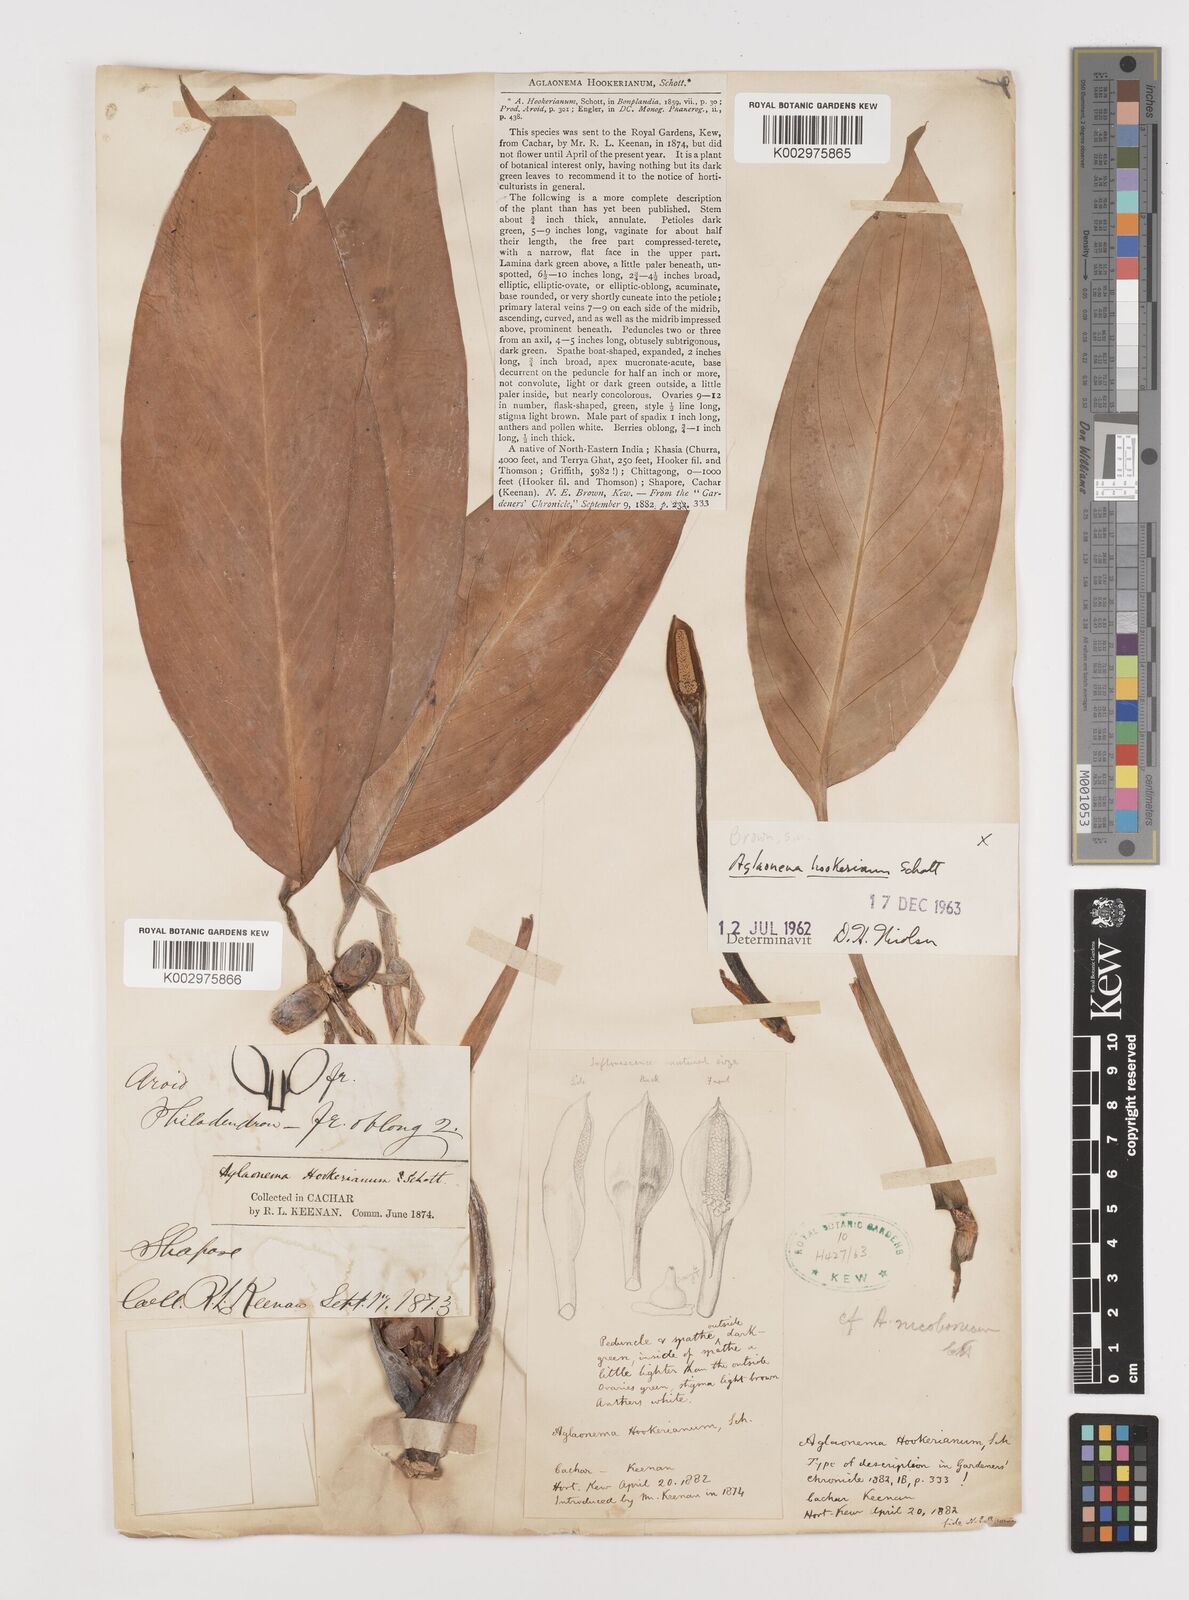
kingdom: Plantae
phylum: Tracheophyta
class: Liliopsida
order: Alismatales
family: Araceae
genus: Aglaonema
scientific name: Aglaonema hookerianum
